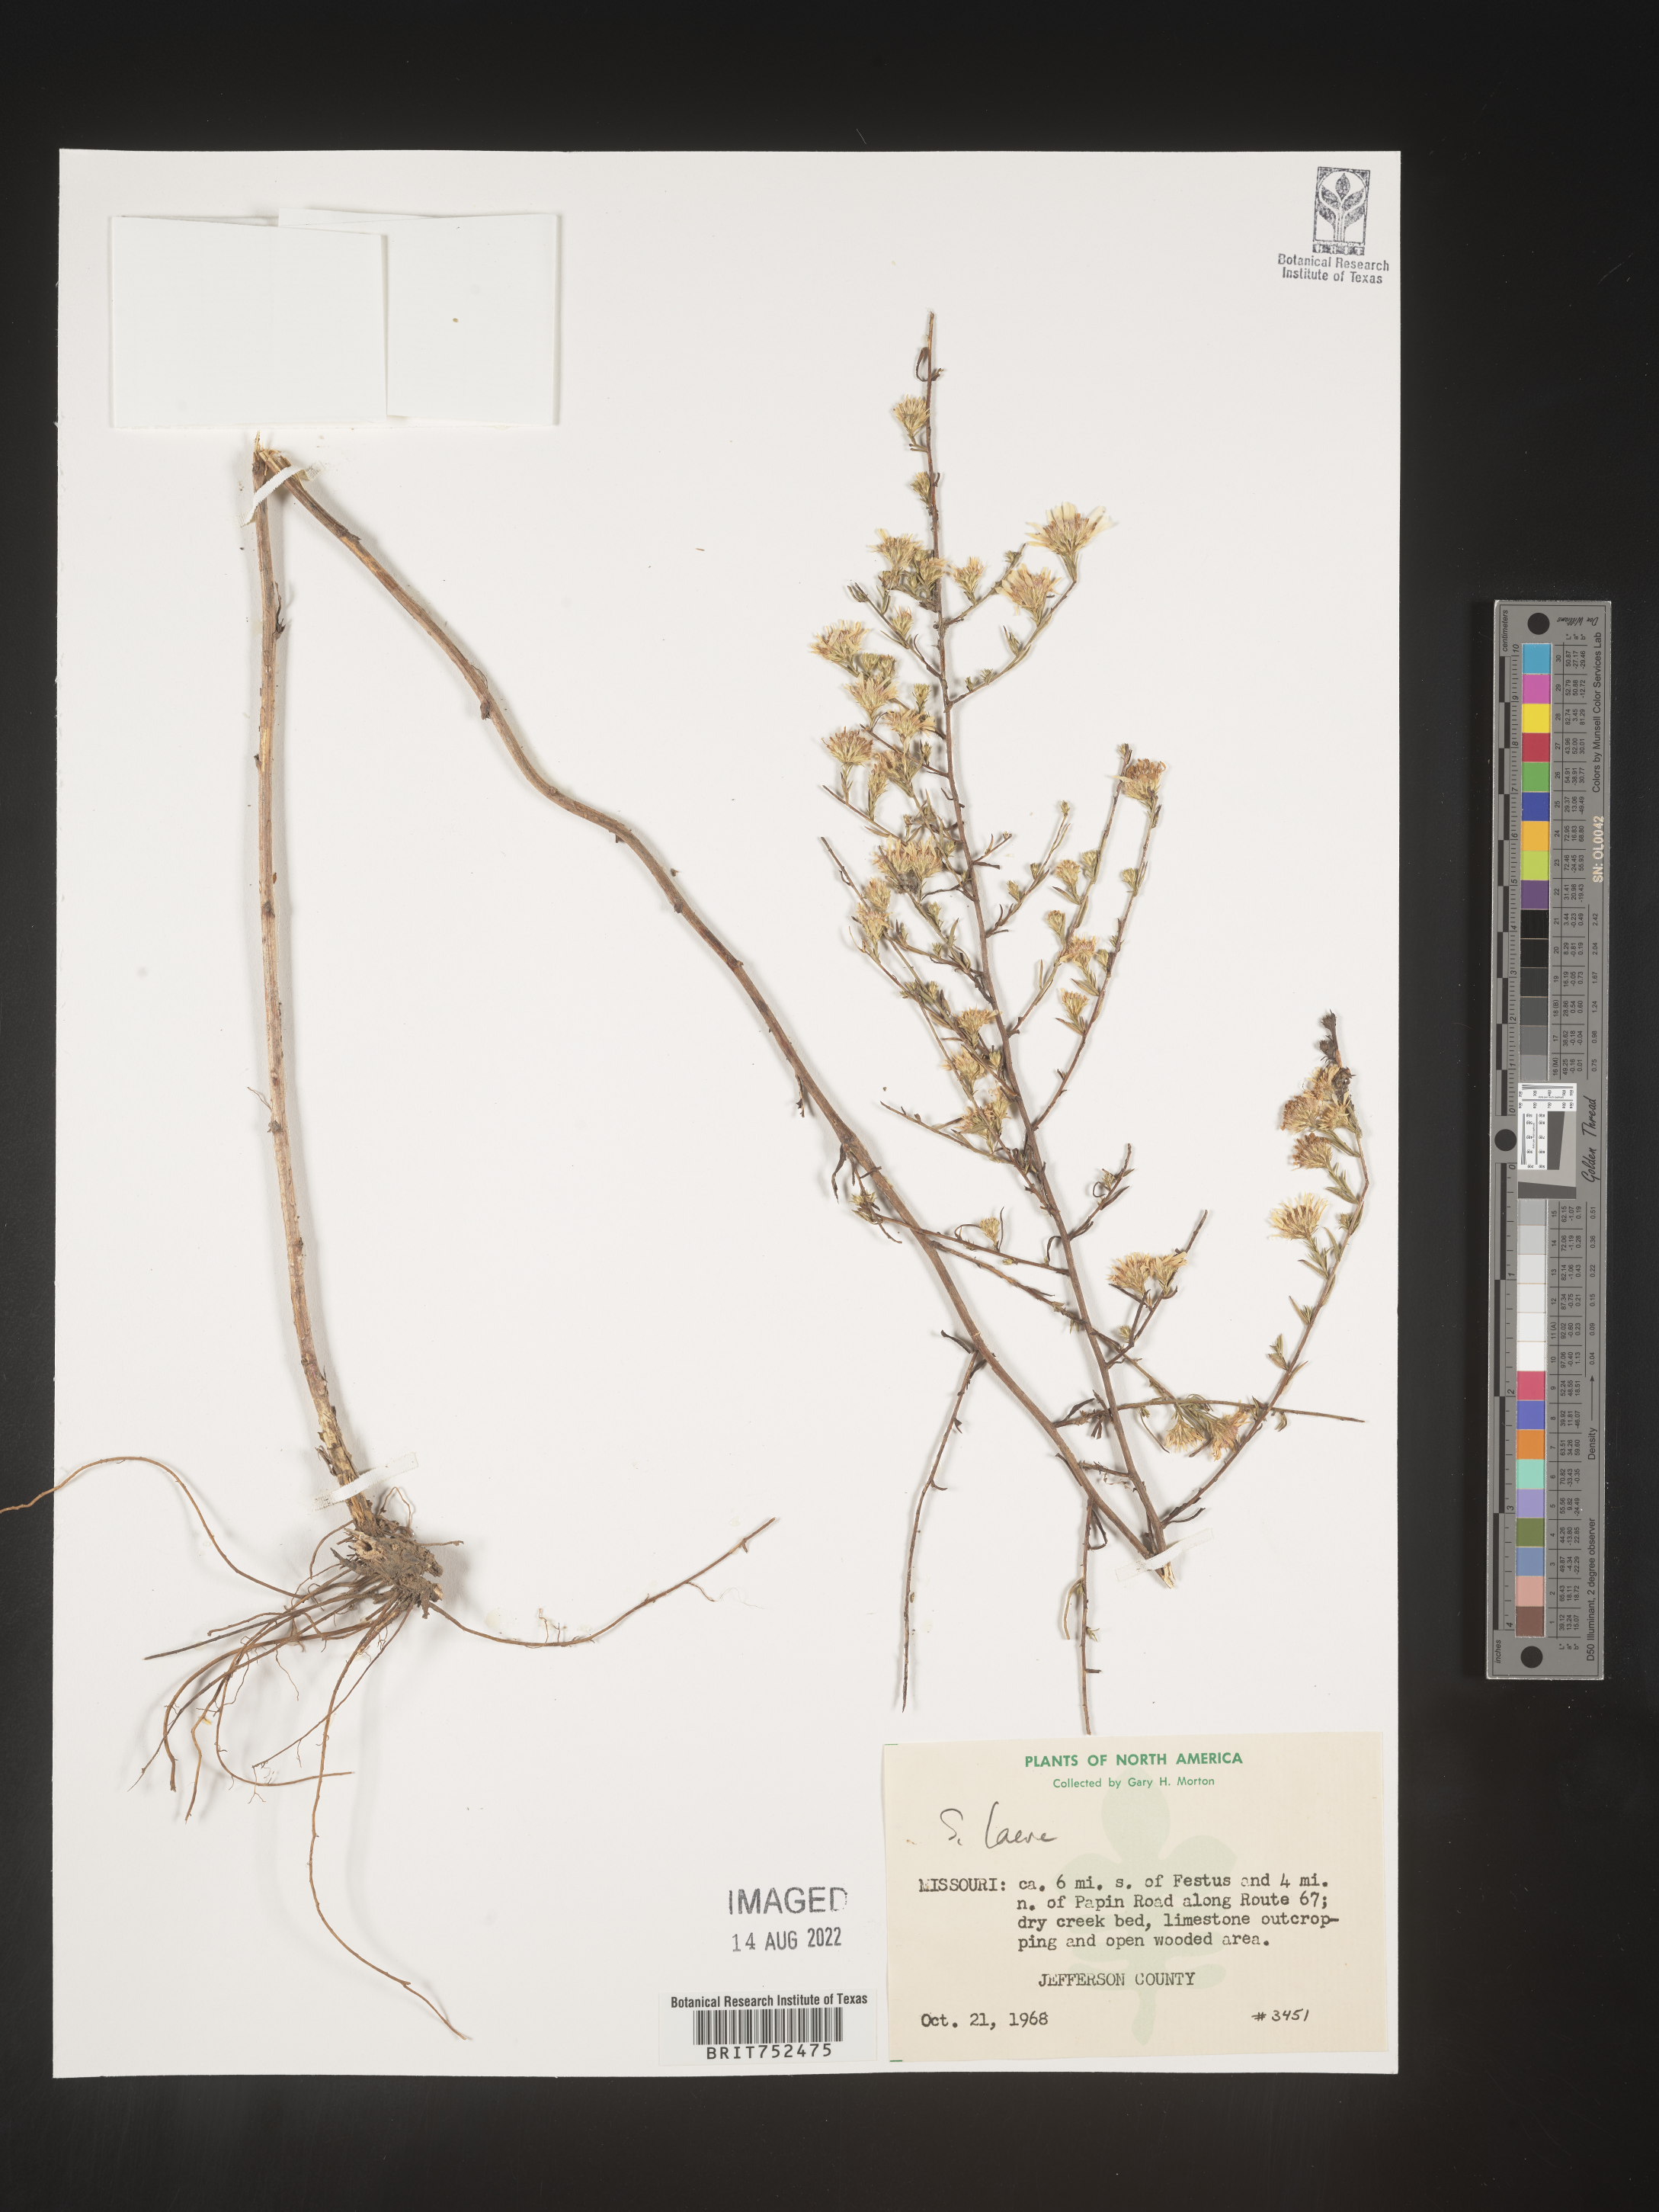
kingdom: Plantae
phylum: Tracheophyta
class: Magnoliopsida
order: Asterales
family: Asteraceae
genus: Symphyotrichum
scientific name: Symphyotrichum laeve
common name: Glaucous aster
